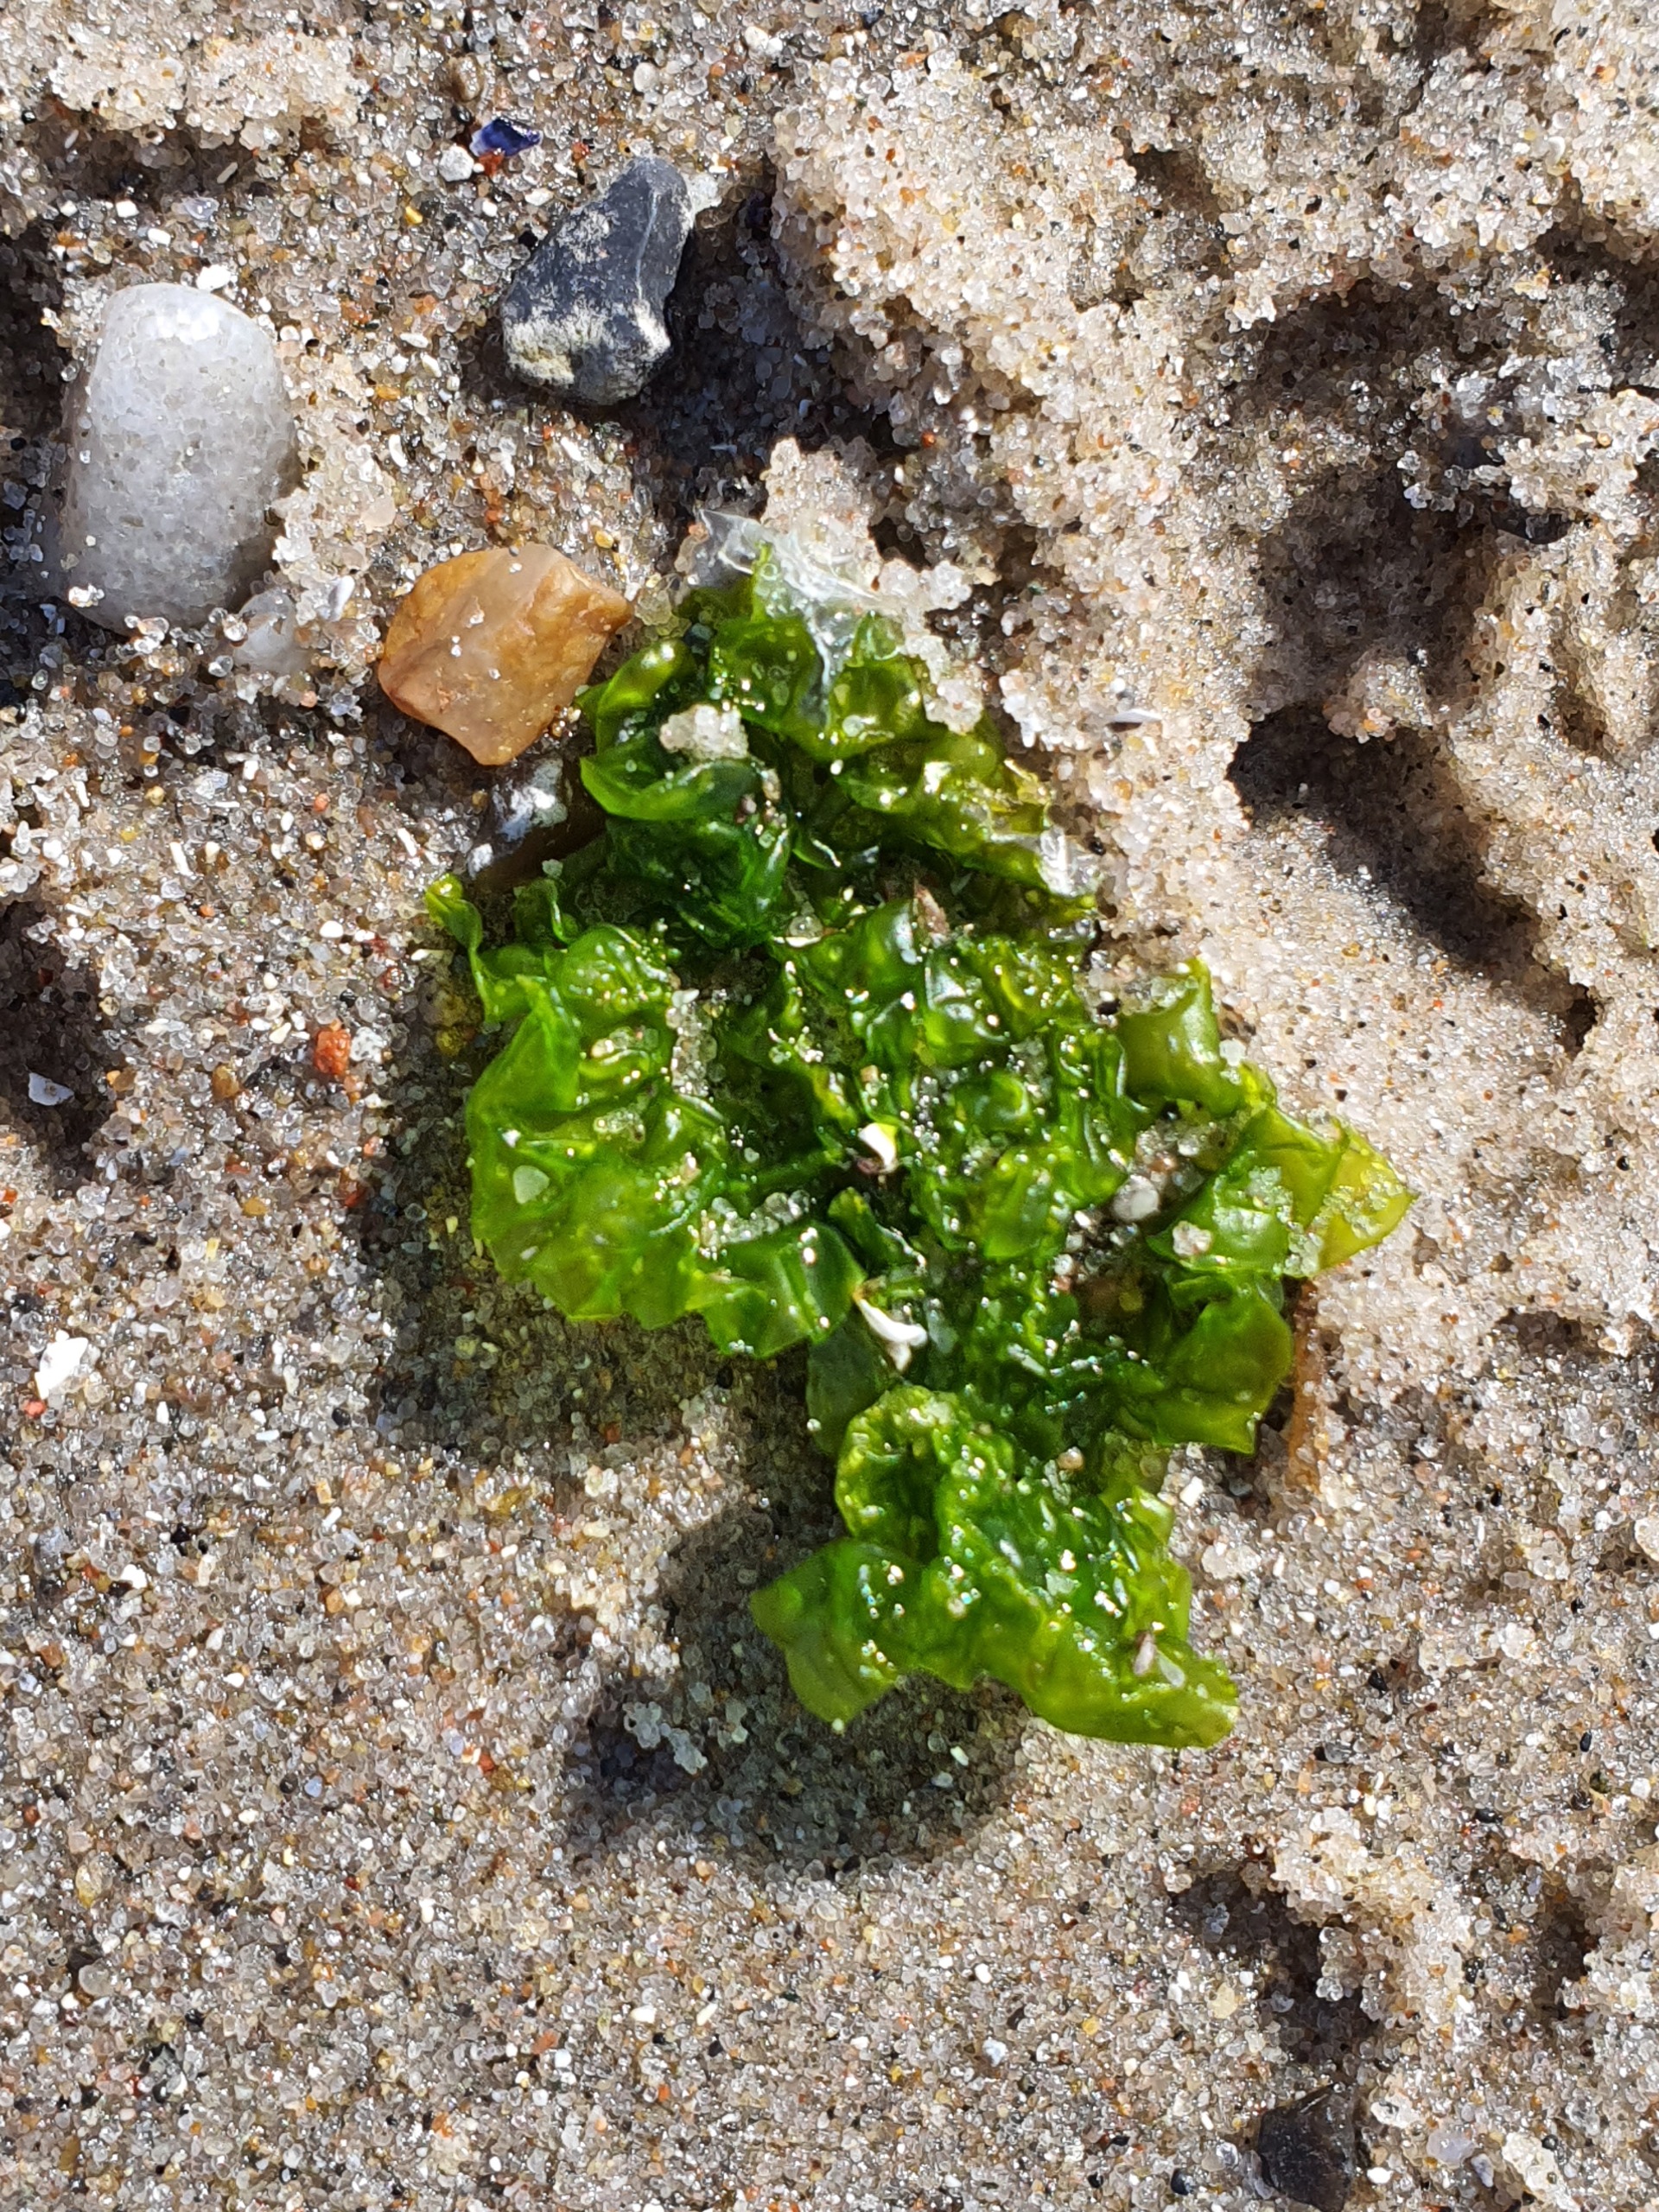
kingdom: Plantae
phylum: Chlorophyta
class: Ulvophyceae
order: Ulvales
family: Ulvaceae
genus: Ulva
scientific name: Ulva fenestrata
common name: Søsalat
